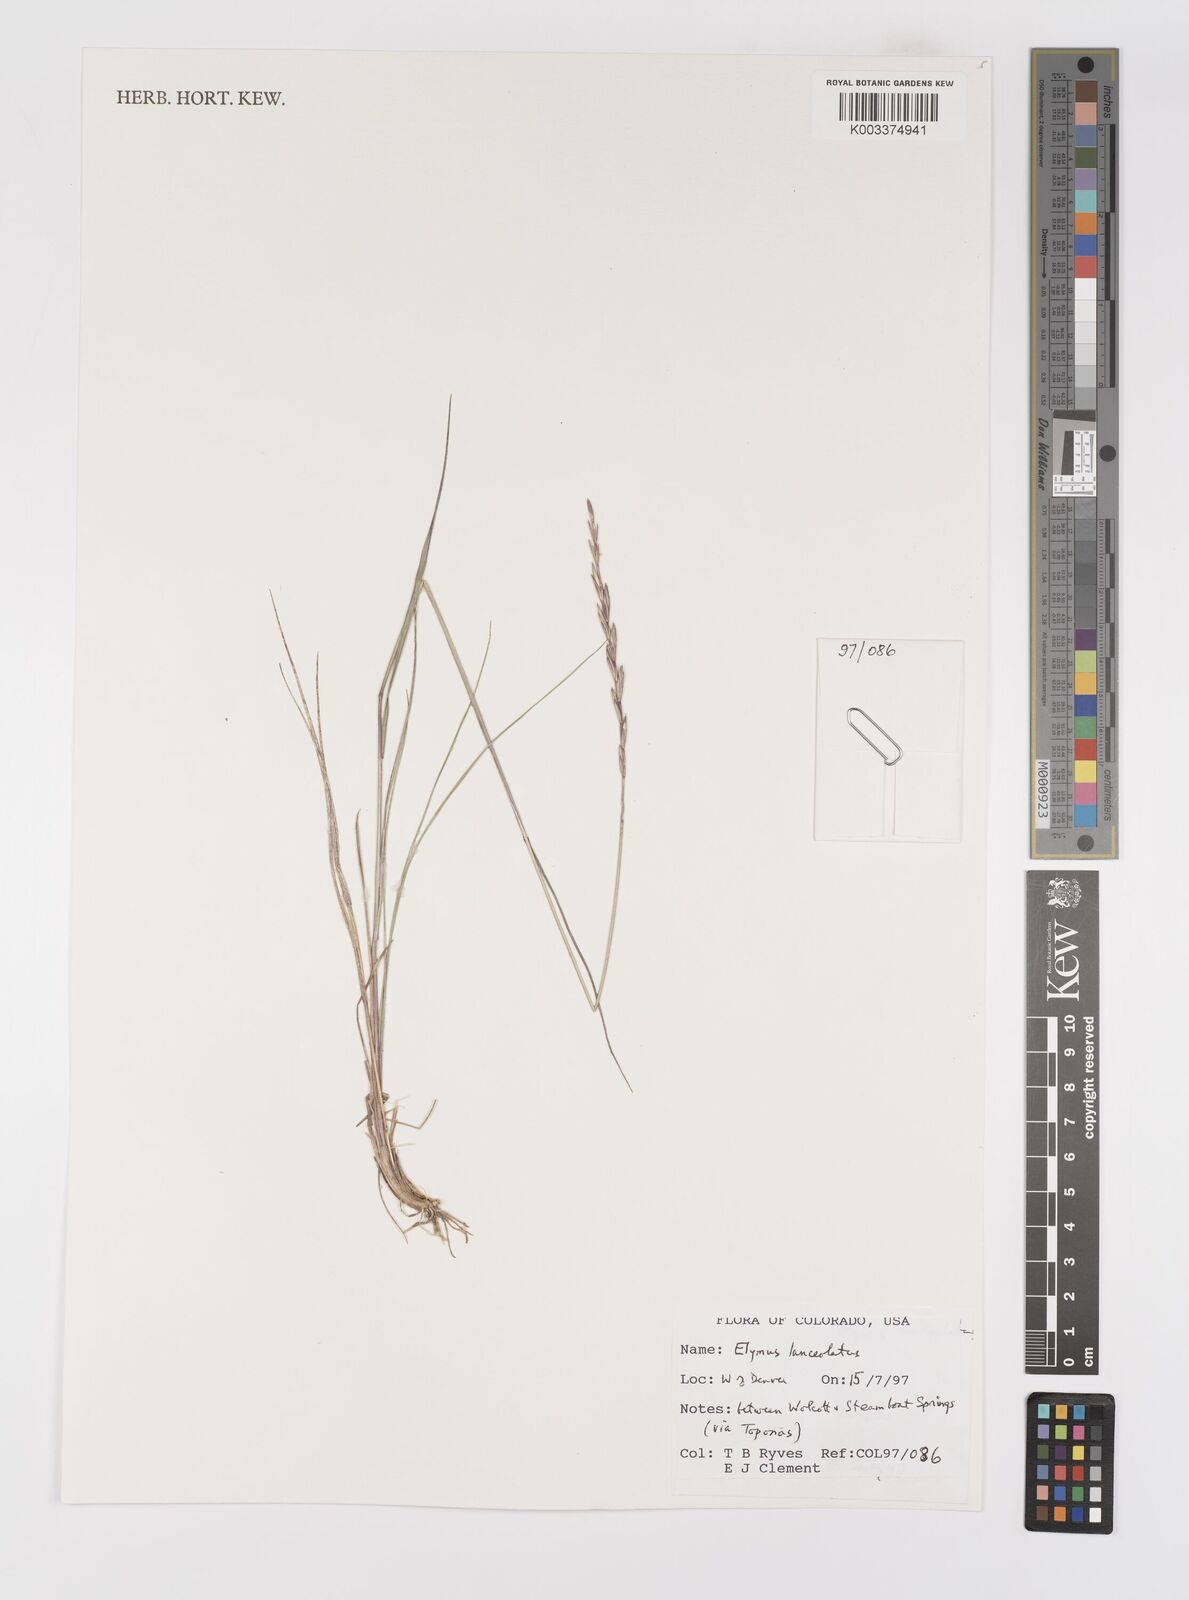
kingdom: Plantae
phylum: Tracheophyta
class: Liliopsida
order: Poales
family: Poaceae
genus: Elymus
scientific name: Elymus lanceolatus
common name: Thick-spike wheatgrass
